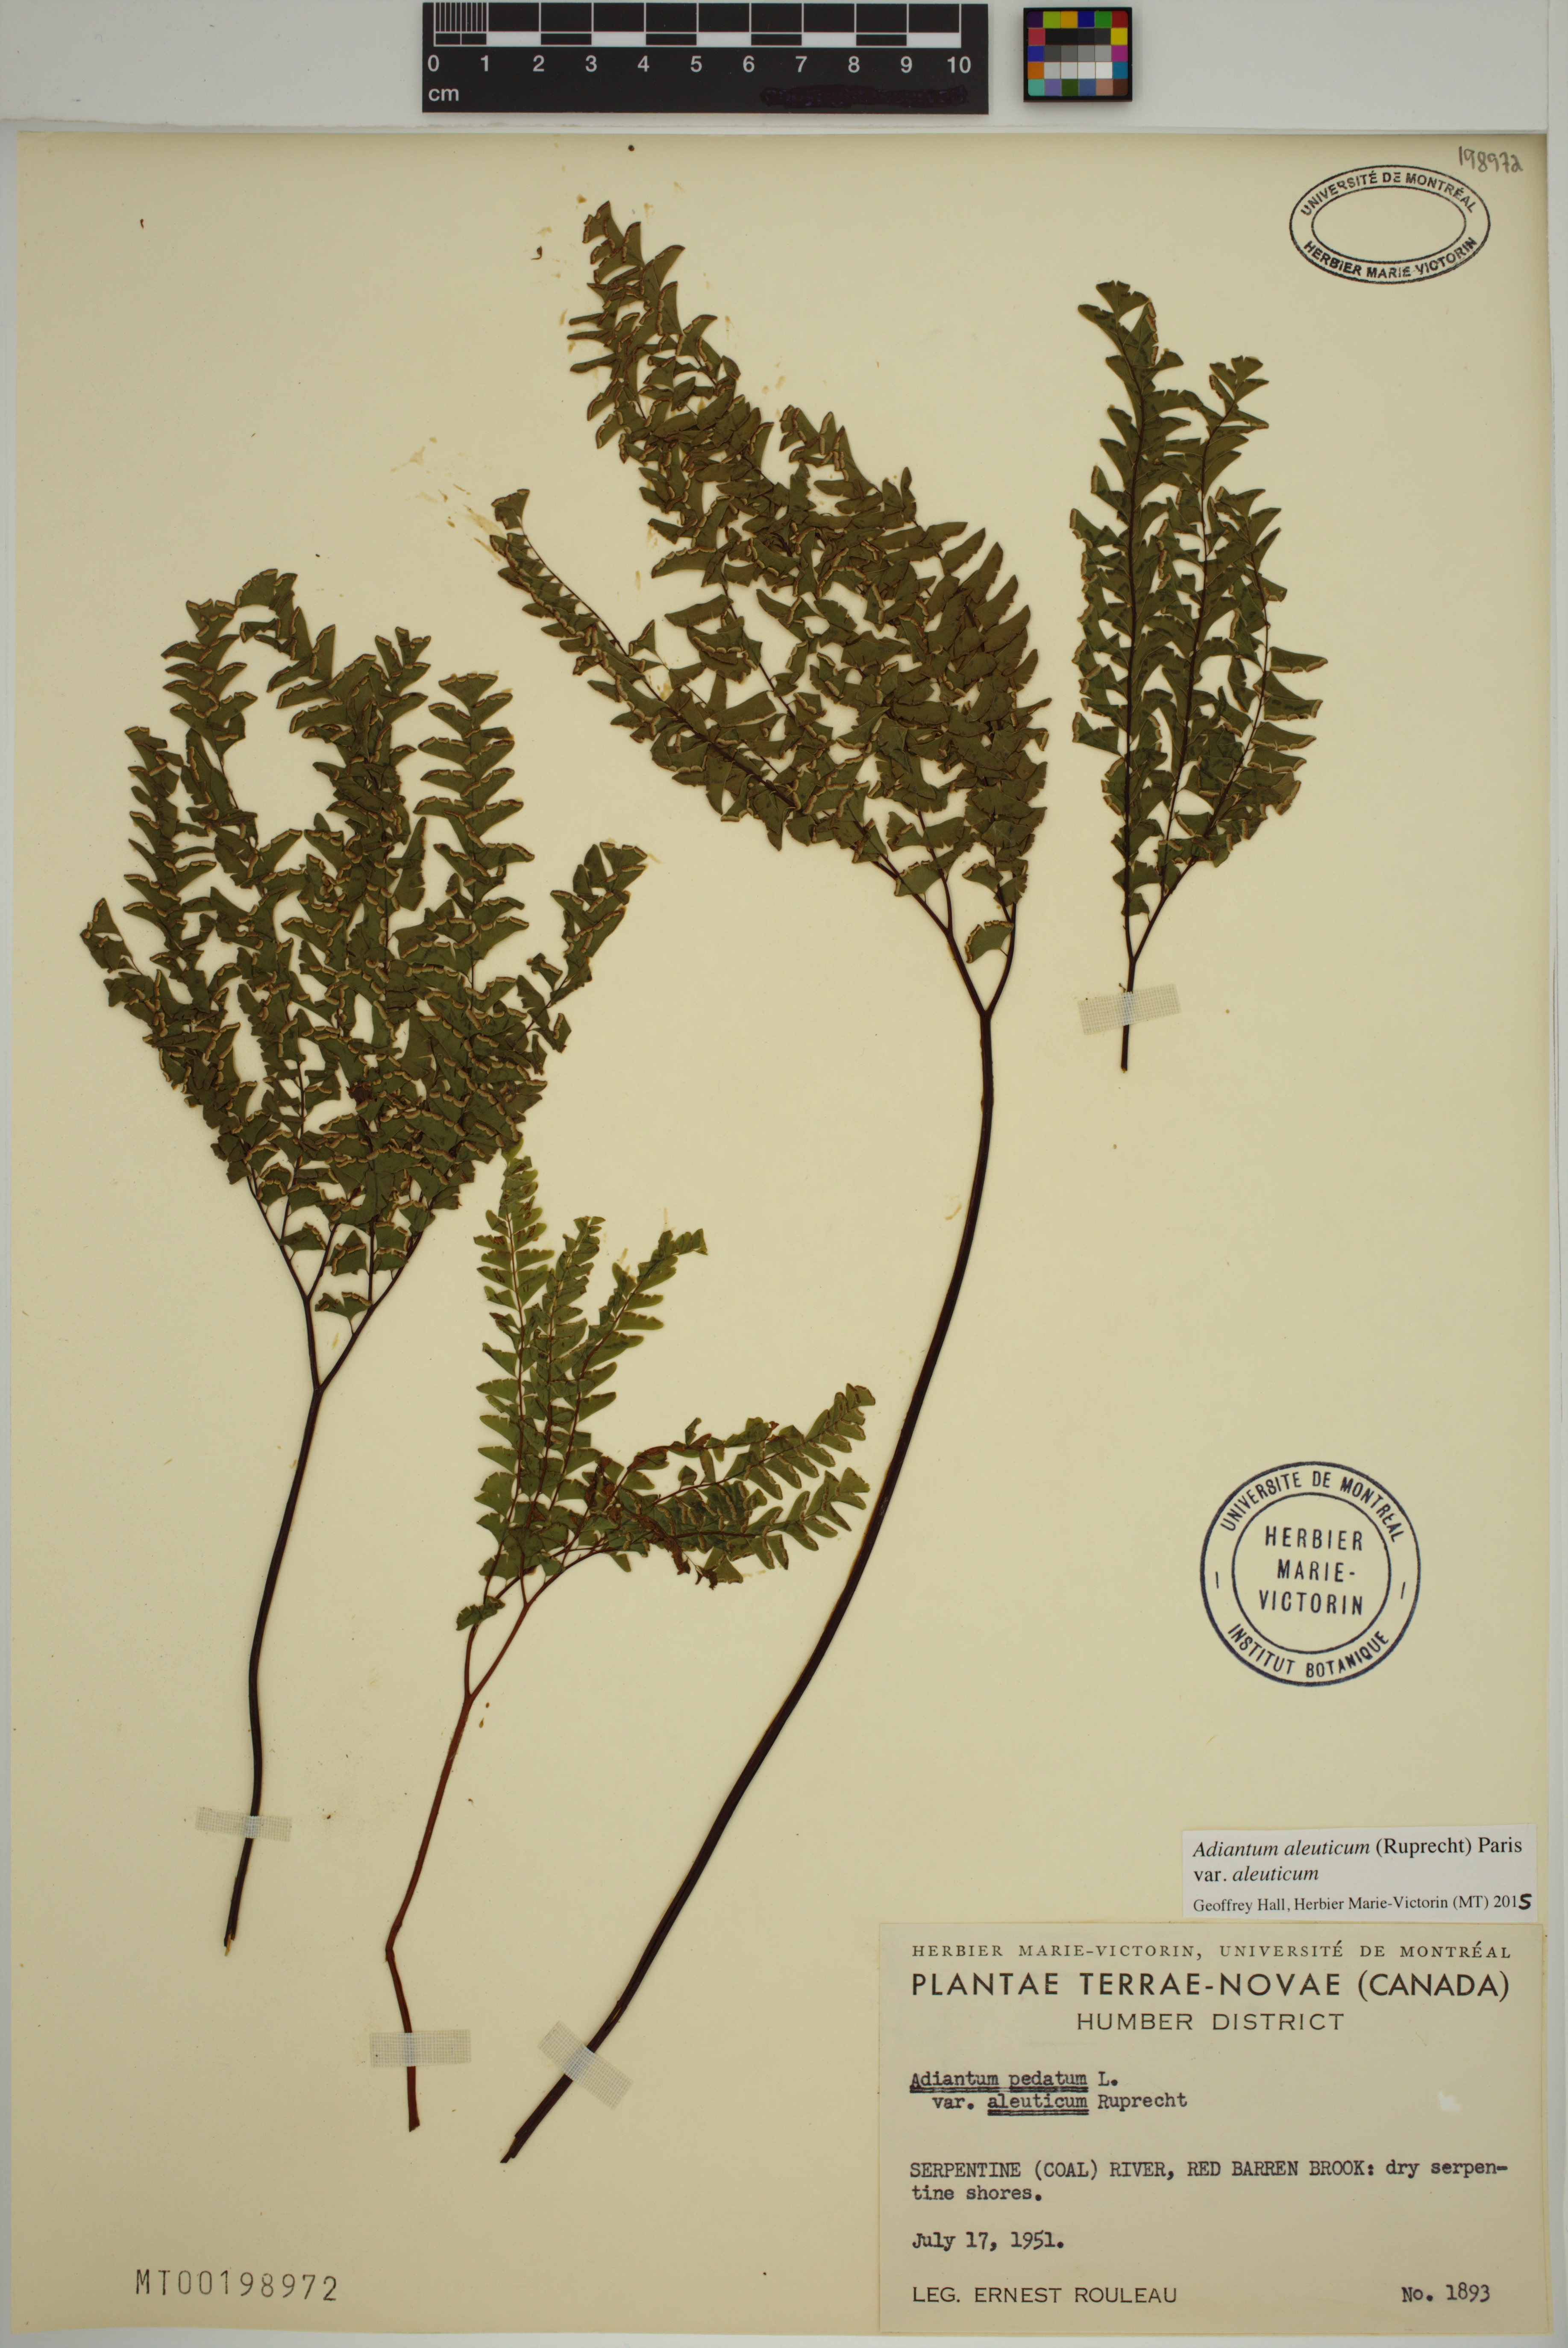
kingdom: Plantae
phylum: Tracheophyta
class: Polypodiopsida
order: Polypodiales
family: Pteridaceae
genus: Adiantum
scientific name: Adiantum aleuticum
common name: Aleutian maidenhair fern
